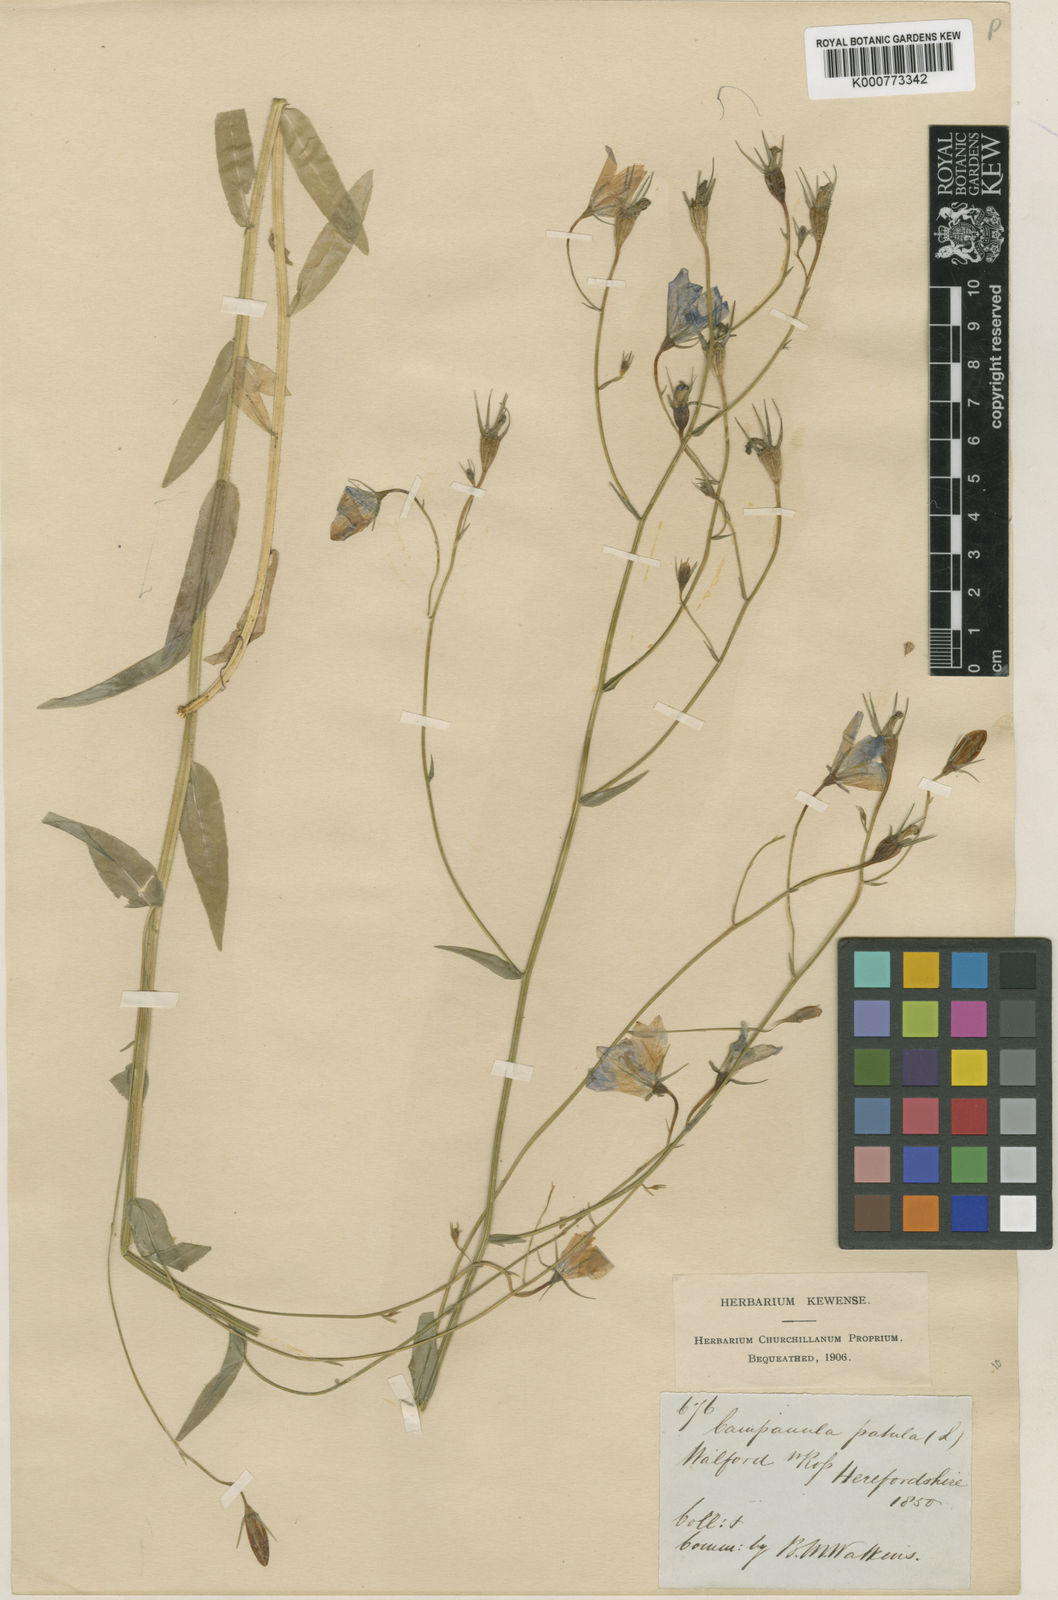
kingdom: Plantae
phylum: Tracheophyta
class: Magnoliopsida
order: Asterales
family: Campanulaceae
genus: Campanula
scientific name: Campanula patula
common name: Spreading bellflower
